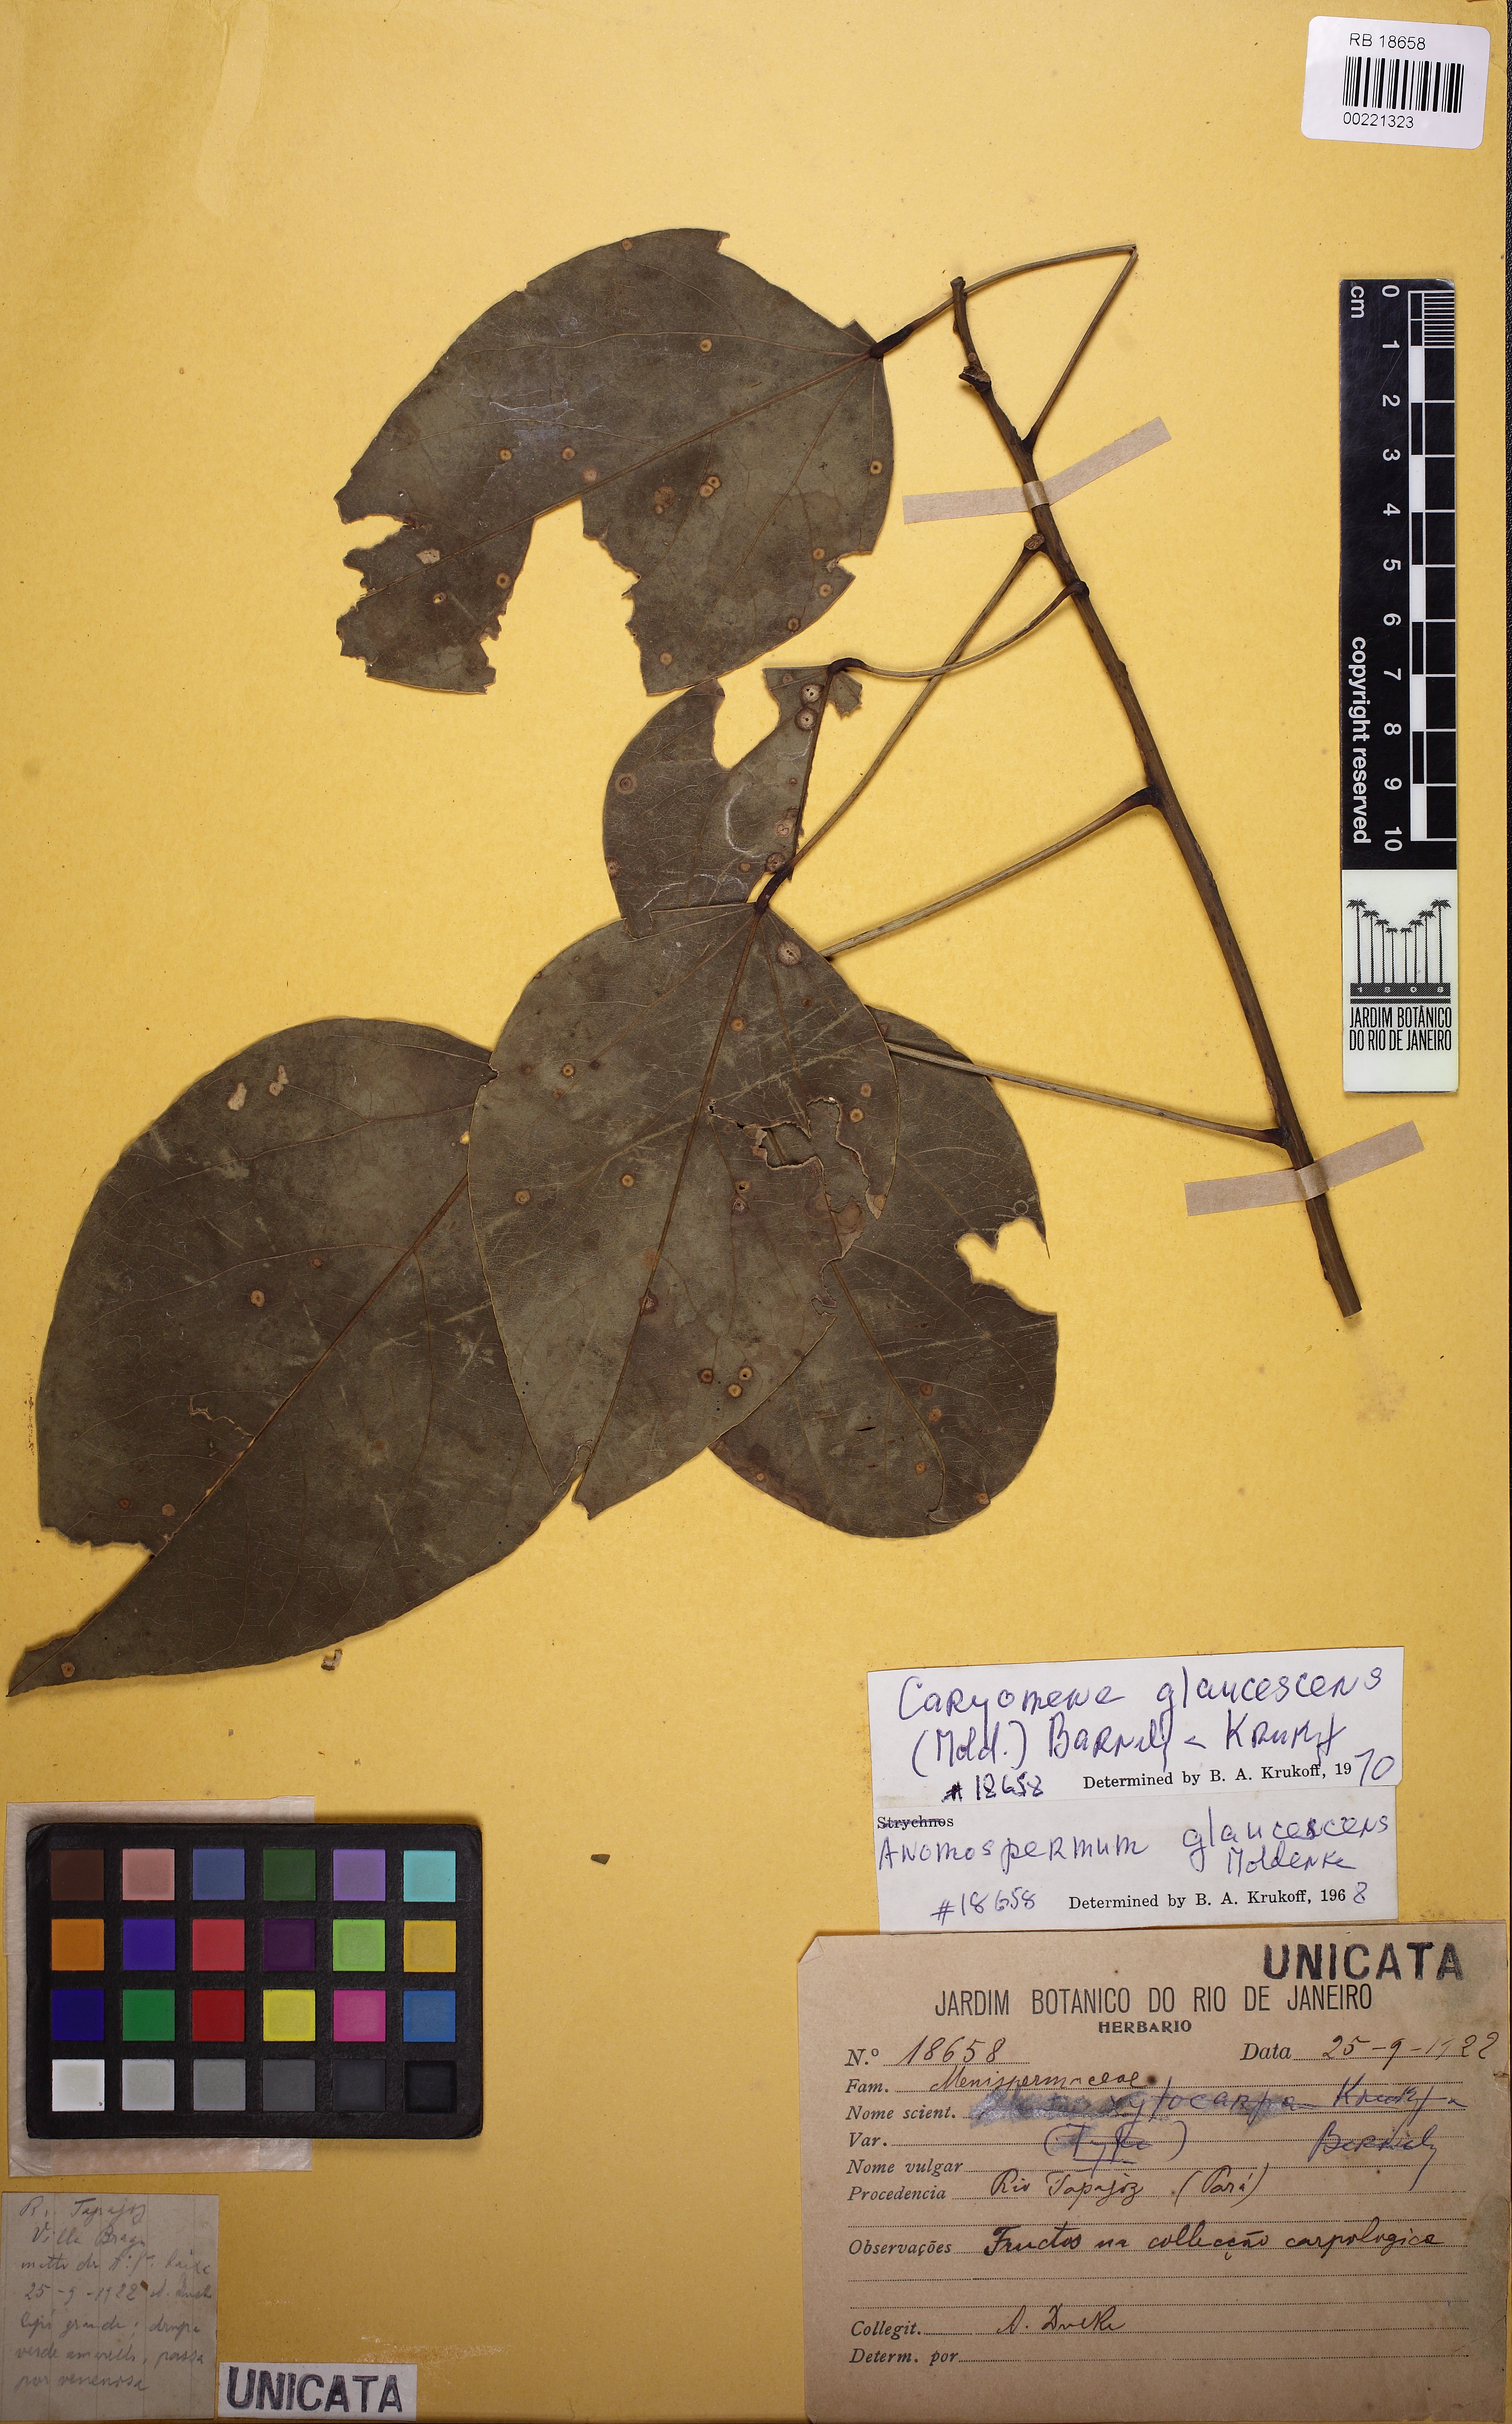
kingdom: Plantae
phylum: Tracheophyta
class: Magnoliopsida
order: Ranunculales
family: Menispermaceae
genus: Caryomene
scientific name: Caryomene glaucescens
